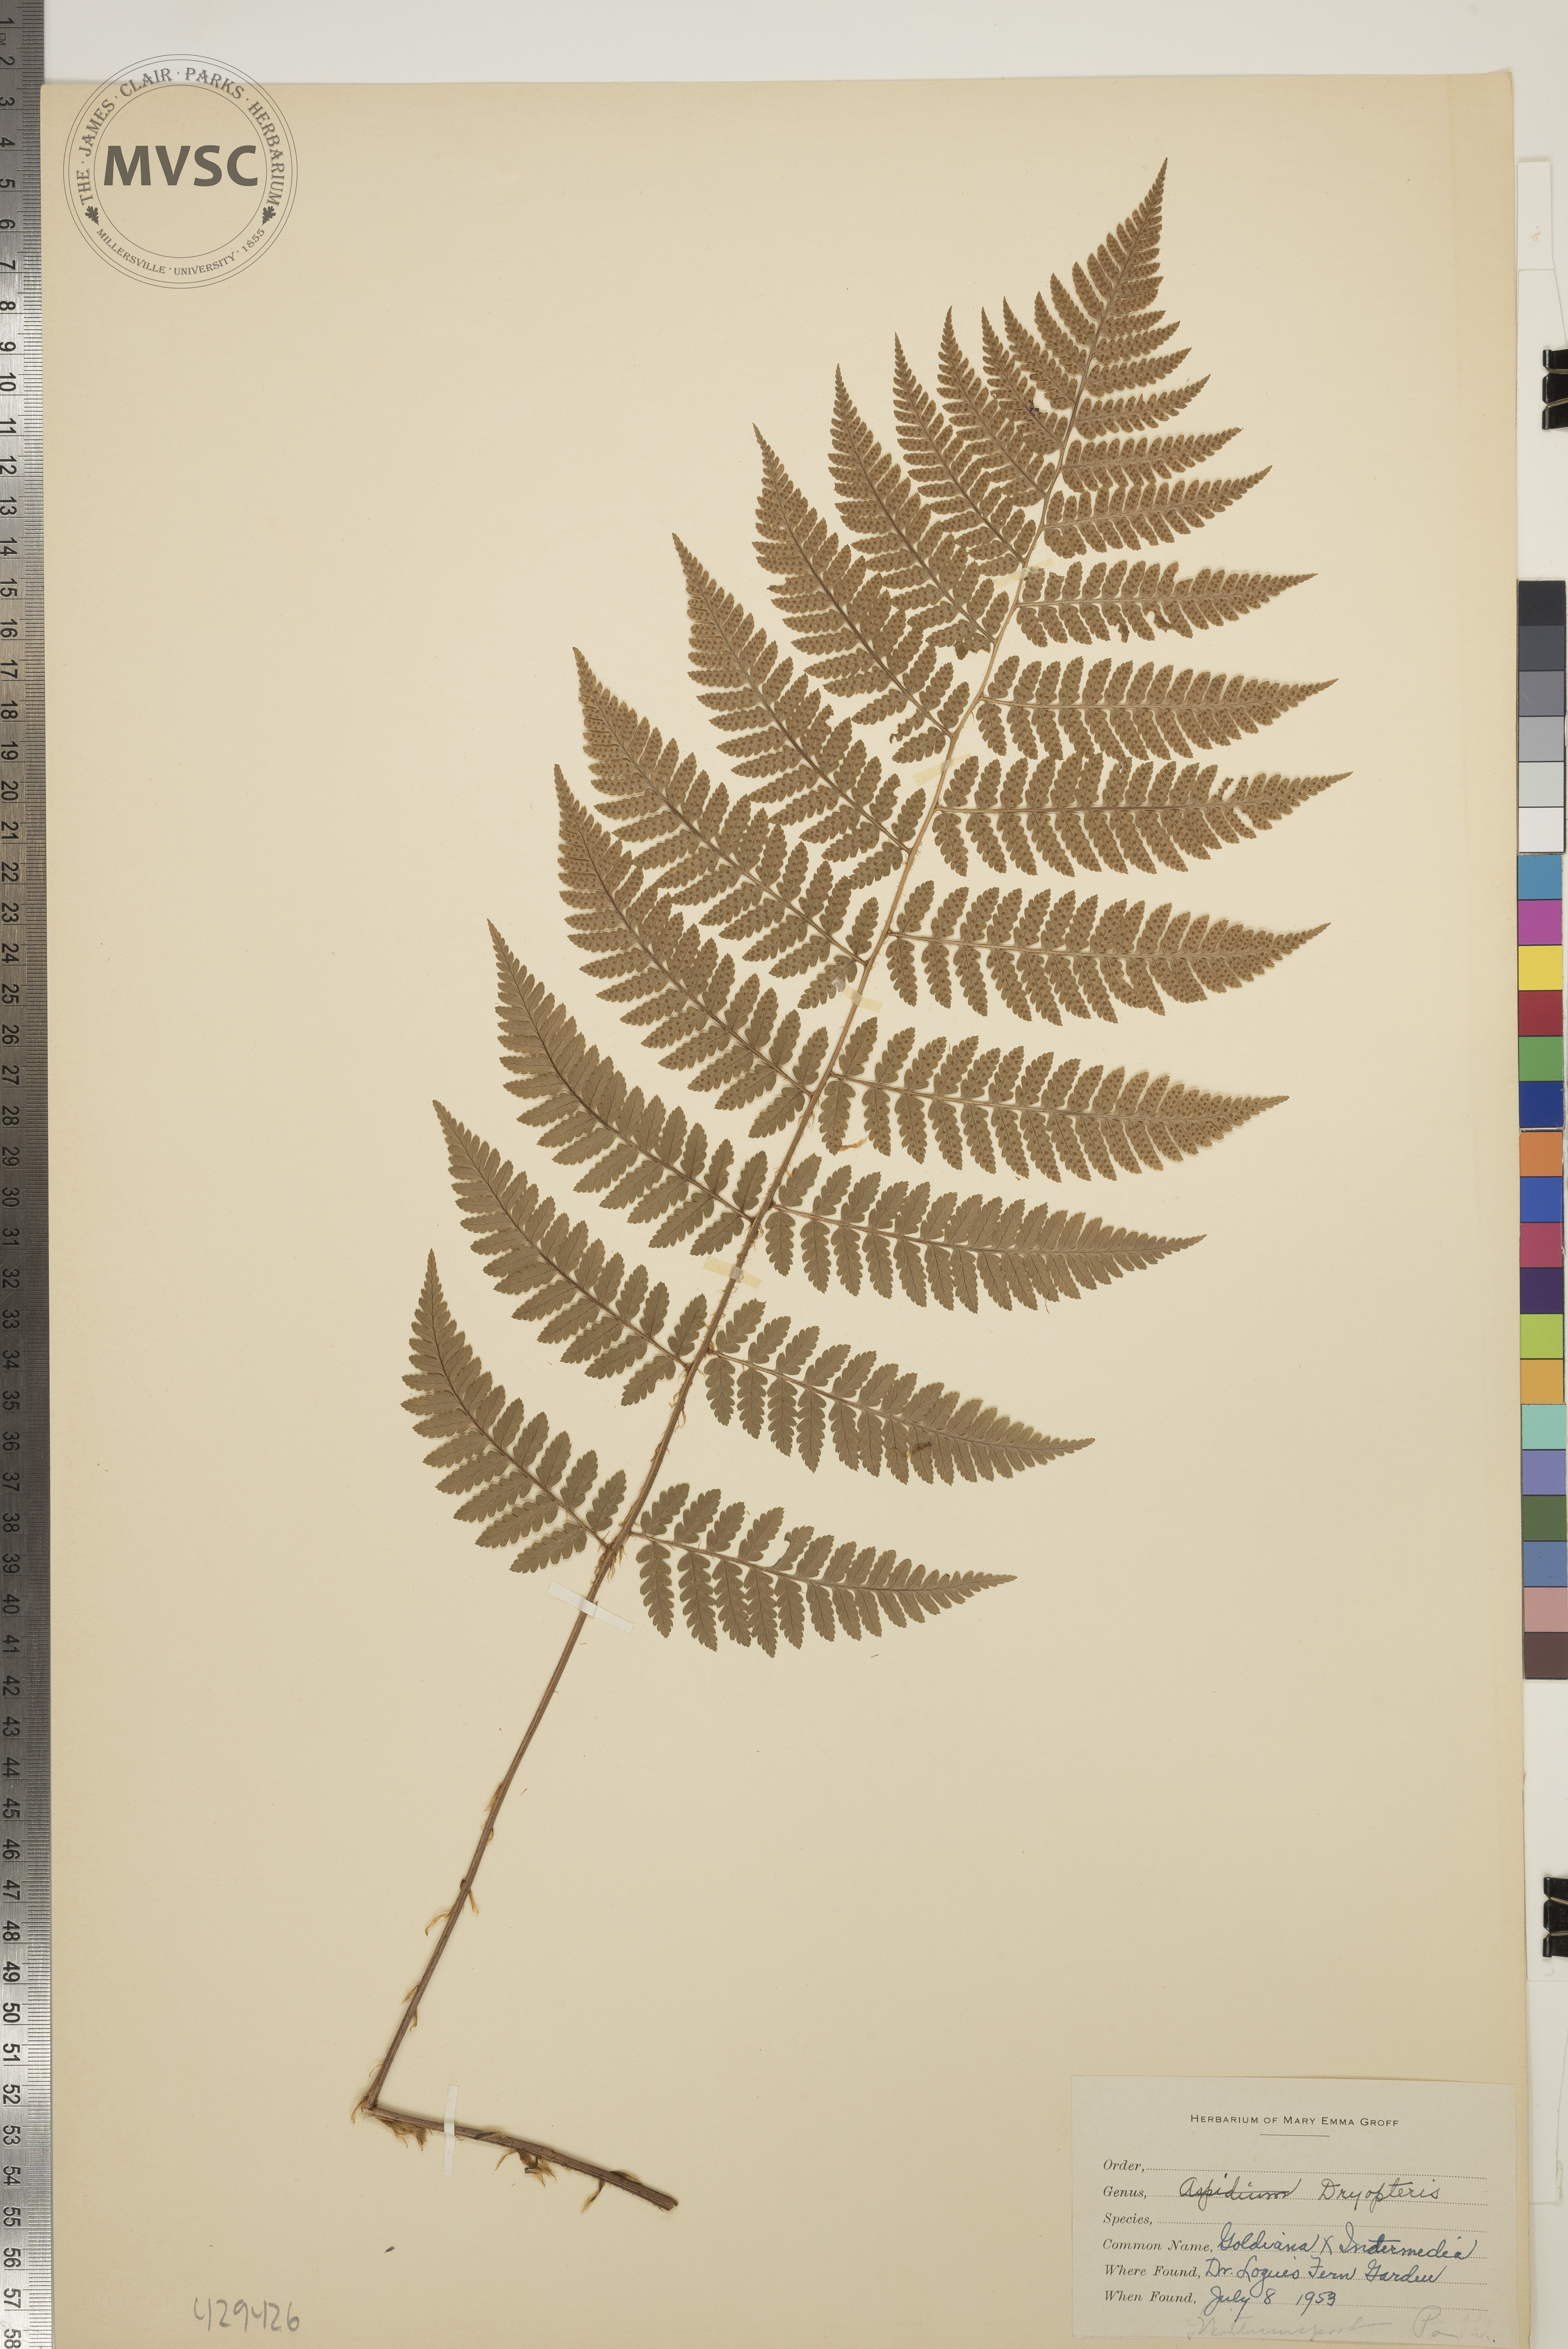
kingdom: Plantae
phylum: Tracheophyta
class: Polypodiopsida
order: Polypodiales
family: Dryopteridaceae
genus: Dryopteris
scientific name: Dryopteris
